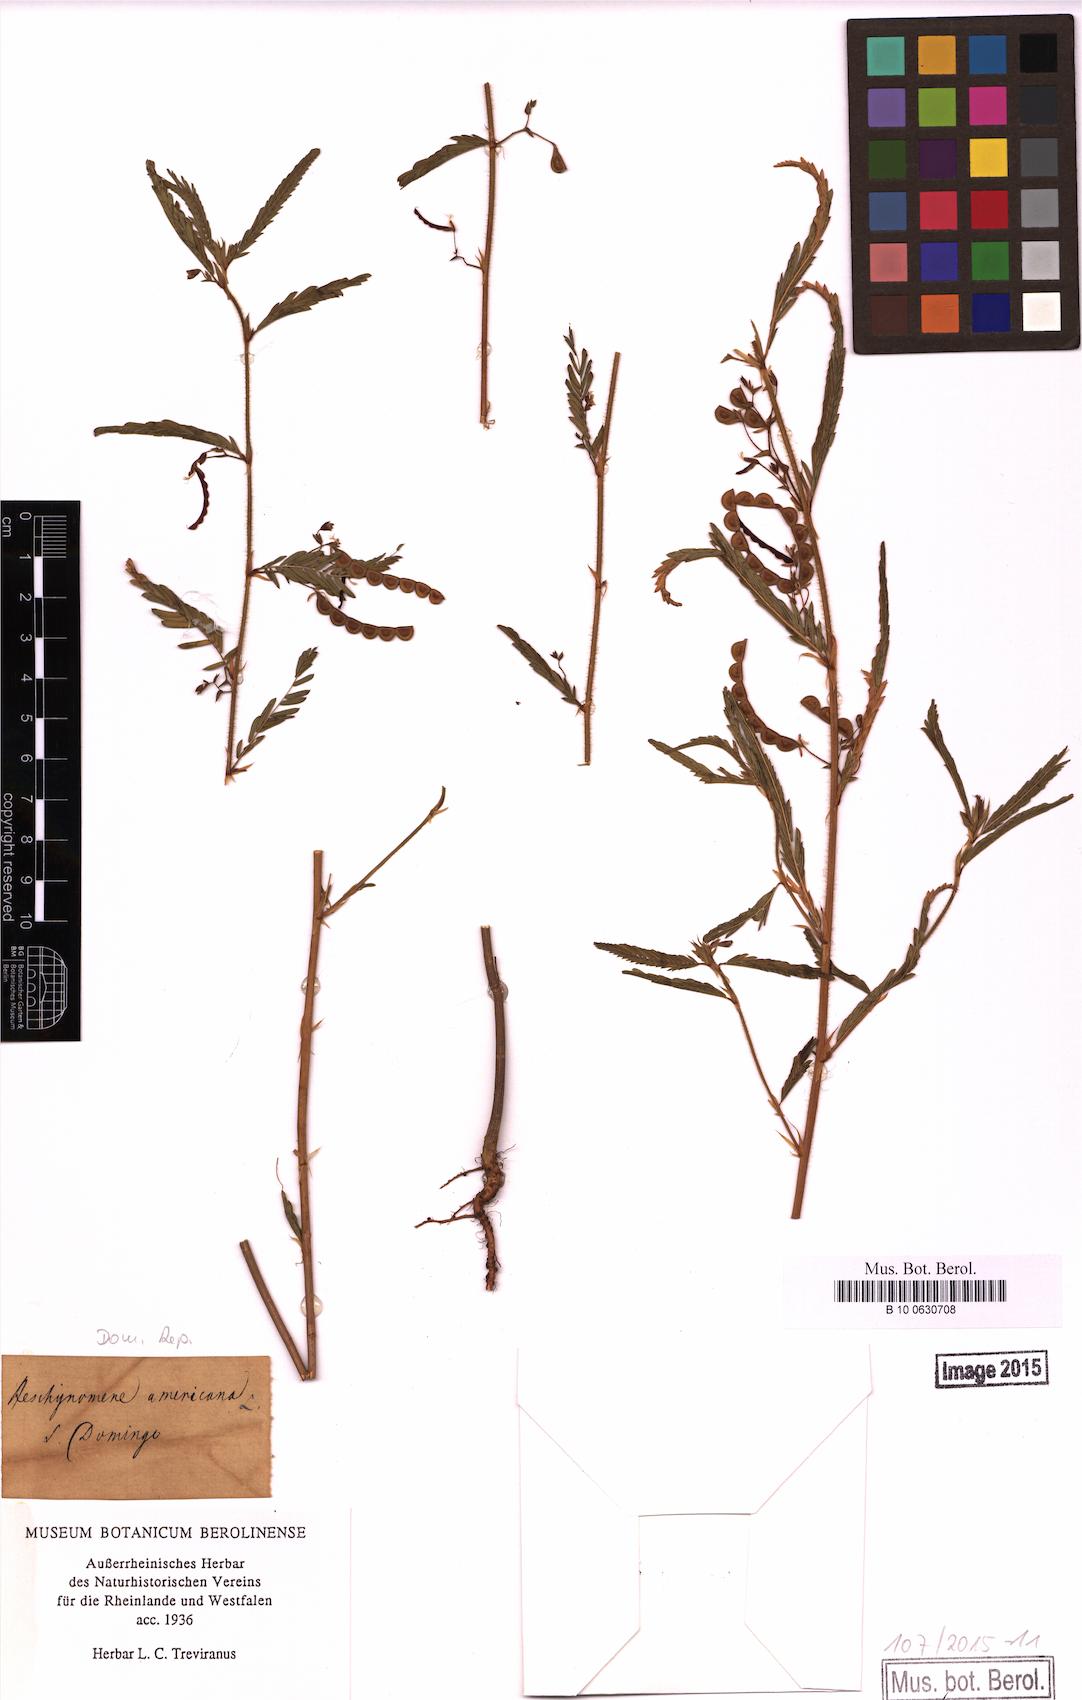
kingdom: Plantae
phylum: Tracheophyta
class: Magnoliopsida
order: Fabales
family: Fabaceae
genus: Aeschynomene
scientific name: Aeschynomene americana
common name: Joint-vetch
